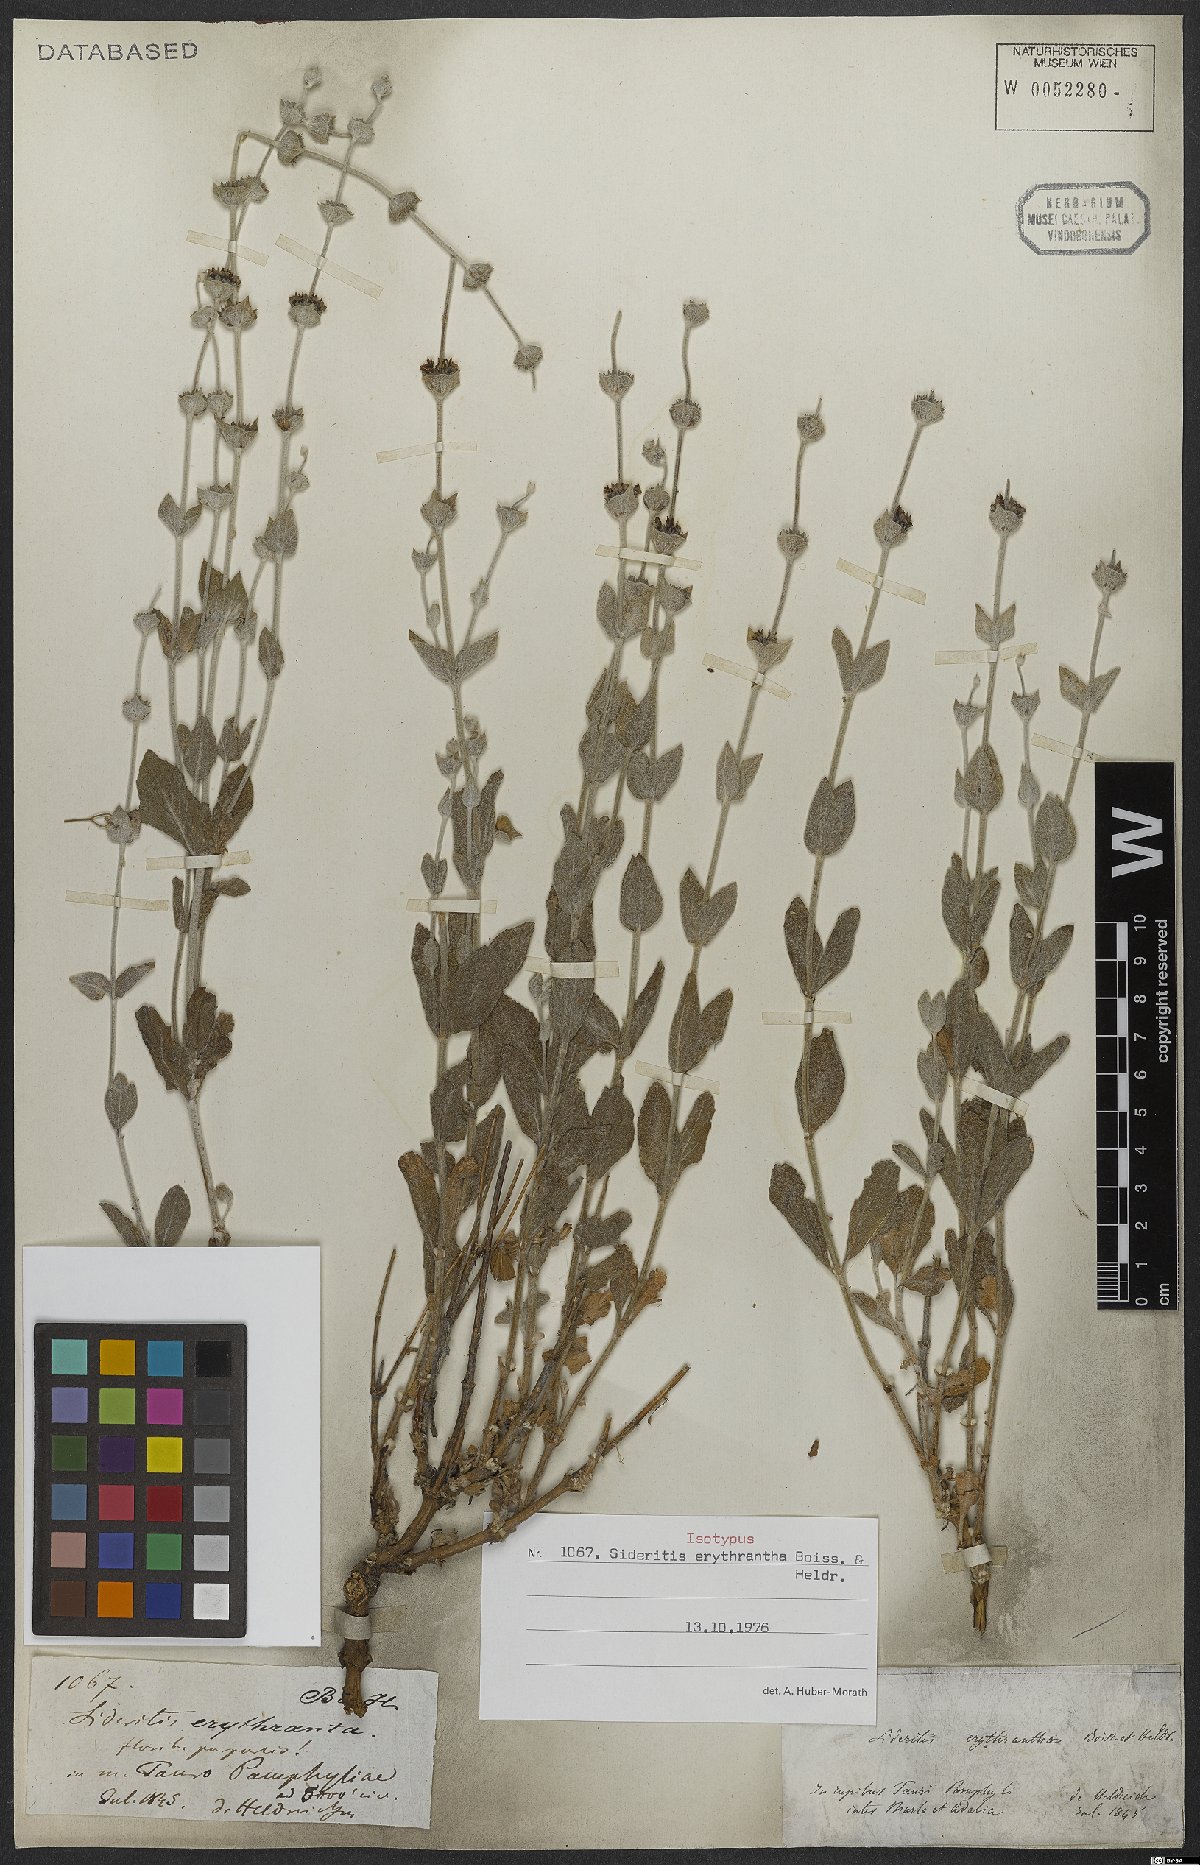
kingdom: Plantae
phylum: Tracheophyta
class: Magnoliopsida
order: Lamiales
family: Lamiaceae
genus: Sideritis
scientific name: Sideritis erythrantha
